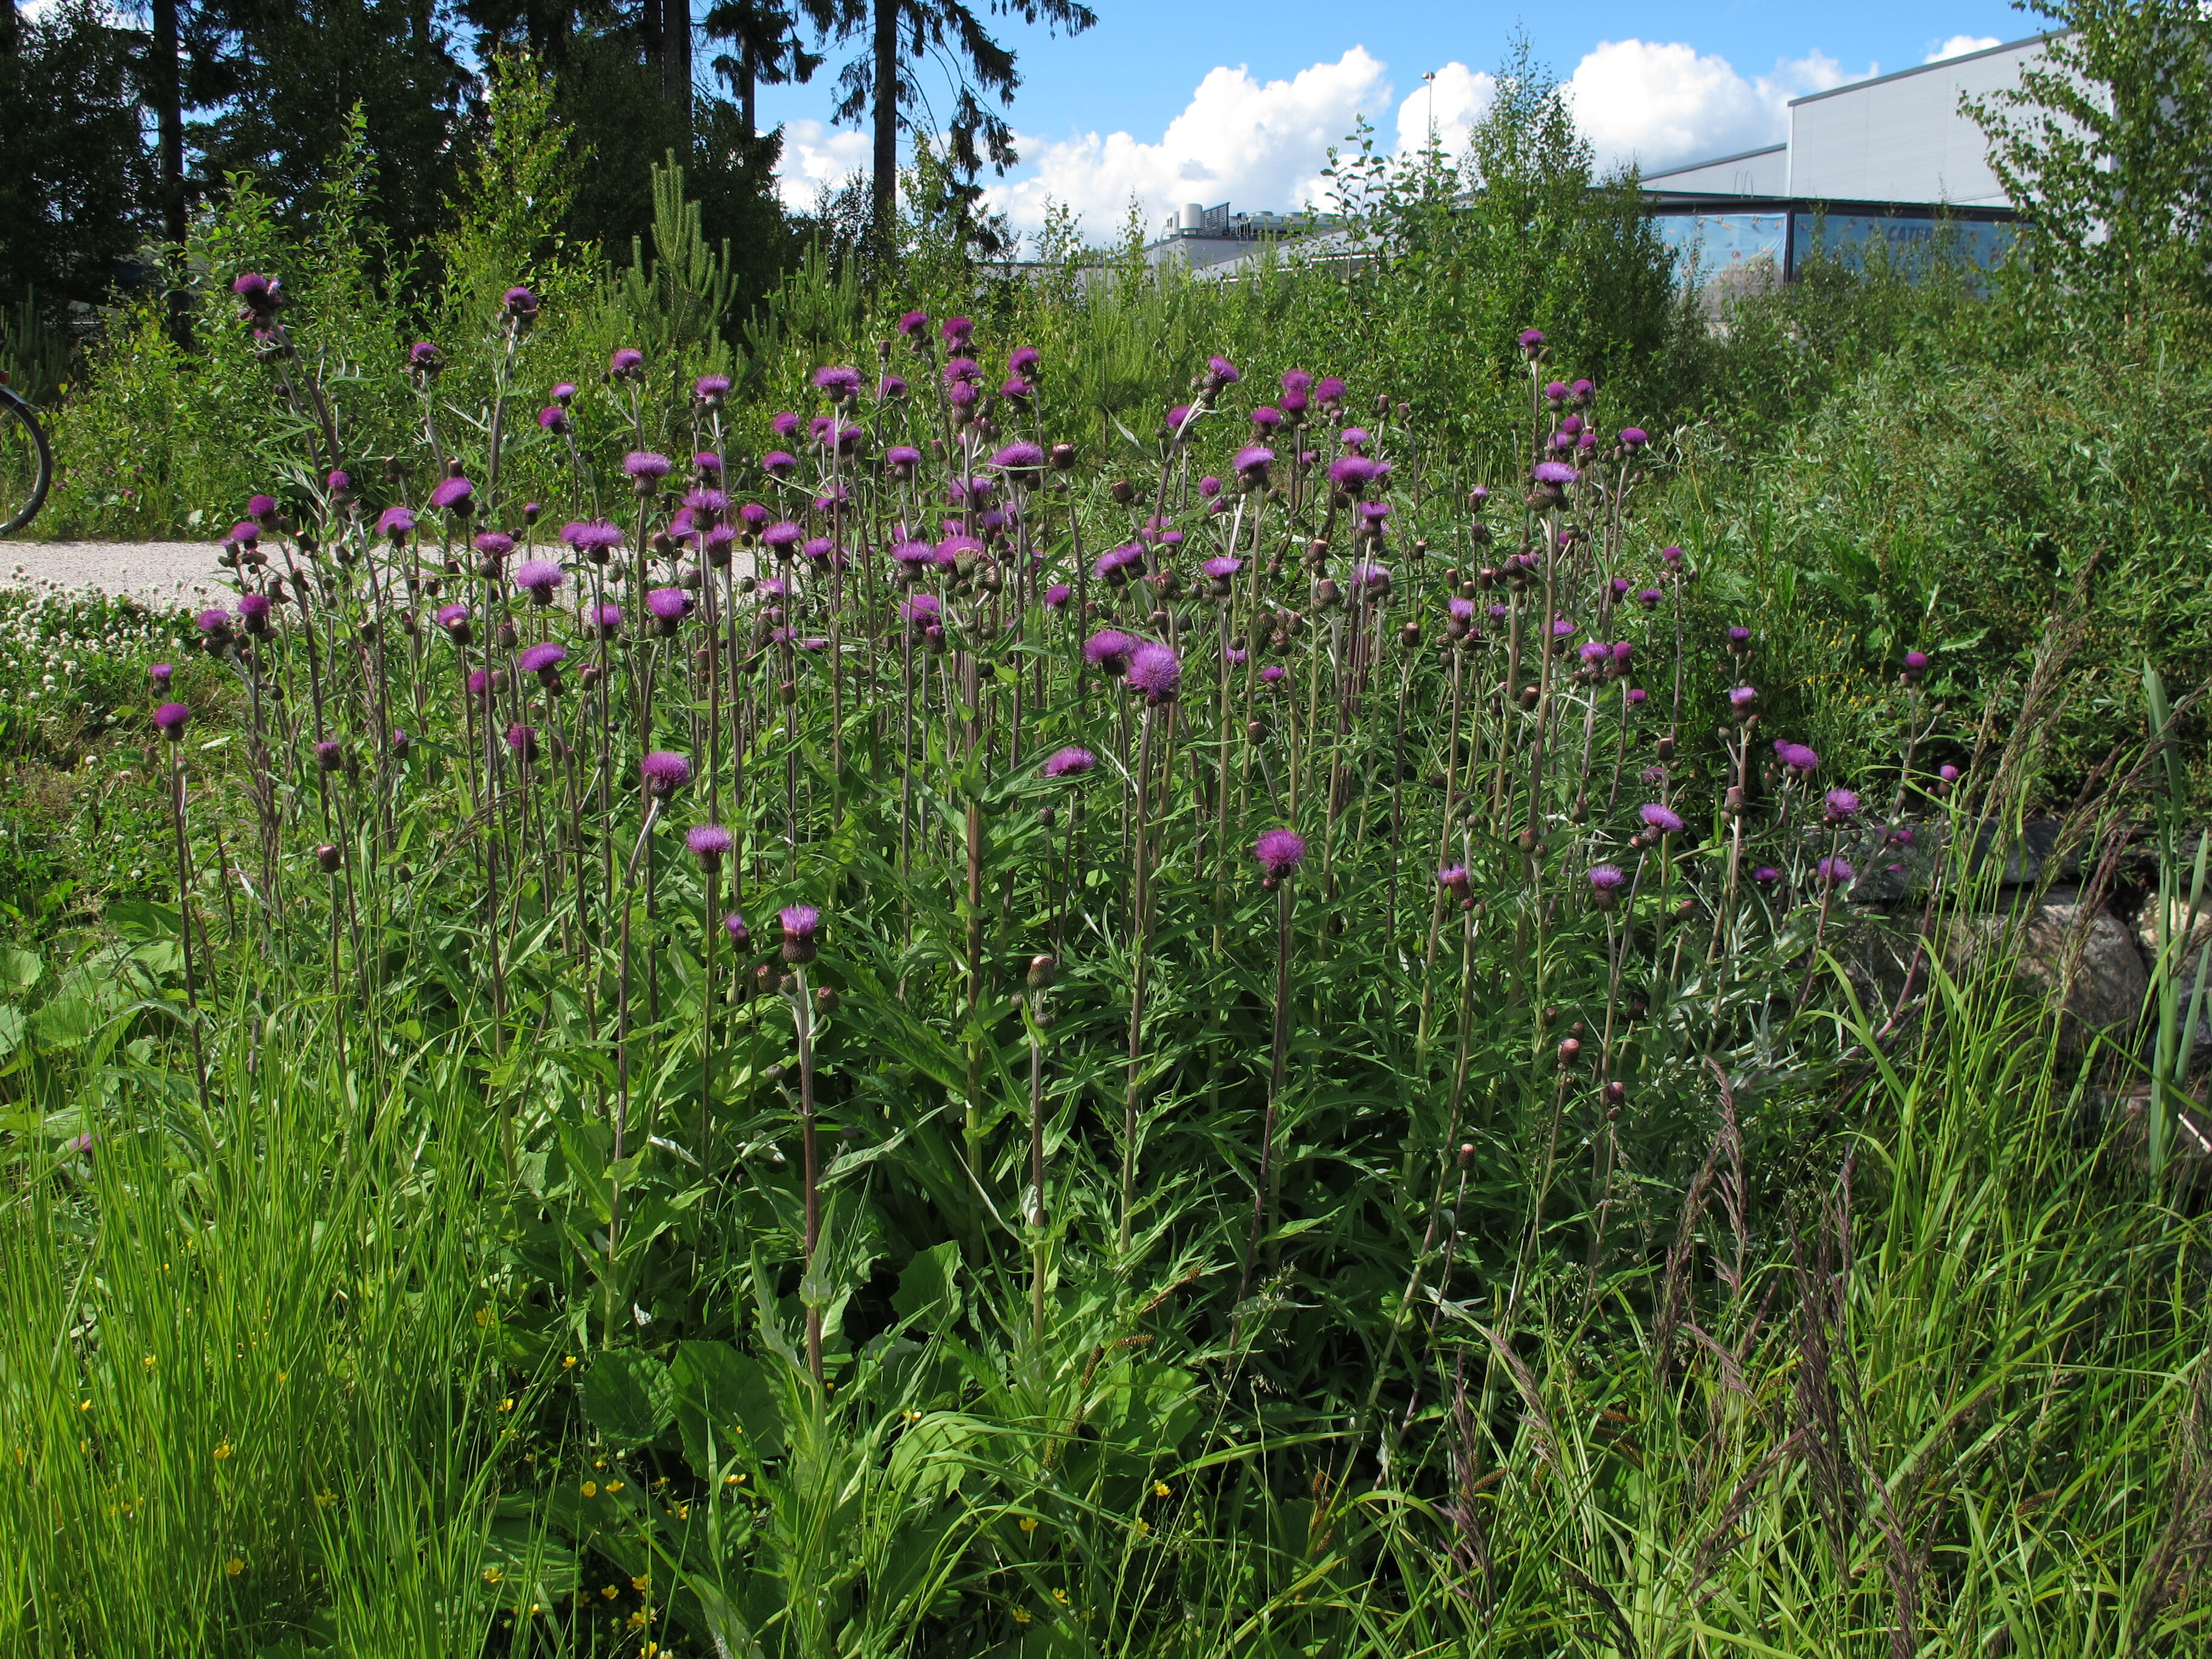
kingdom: Plantae
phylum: Tracheophyta
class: Magnoliopsida
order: Asterales
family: Asteraceae
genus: Cirsium
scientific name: Cirsium heterophyllum
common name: Melancholy thistle
